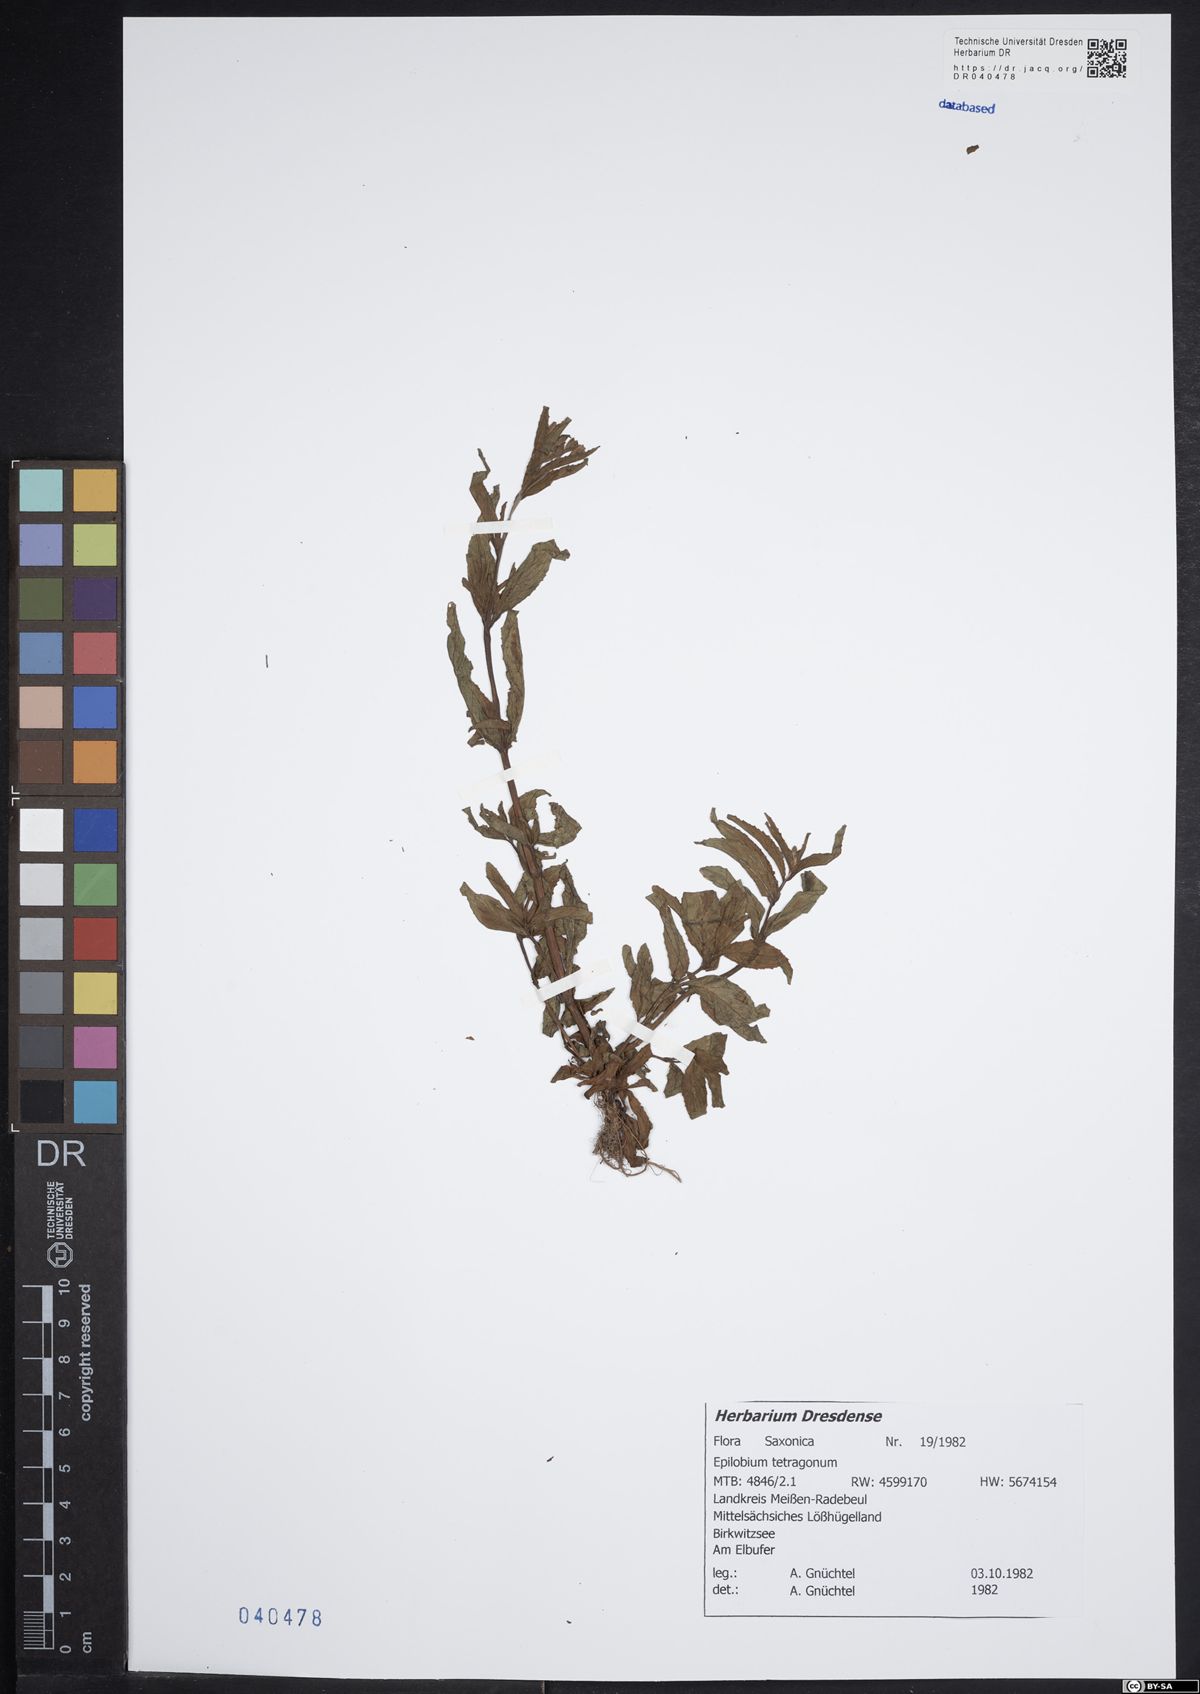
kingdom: Plantae
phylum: Tracheophyta
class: Magnoliopsida
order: Myrtales
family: Onagraceae
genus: Epilobium
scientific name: Epilobium tetragonum
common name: Square-stemmed willowherb
